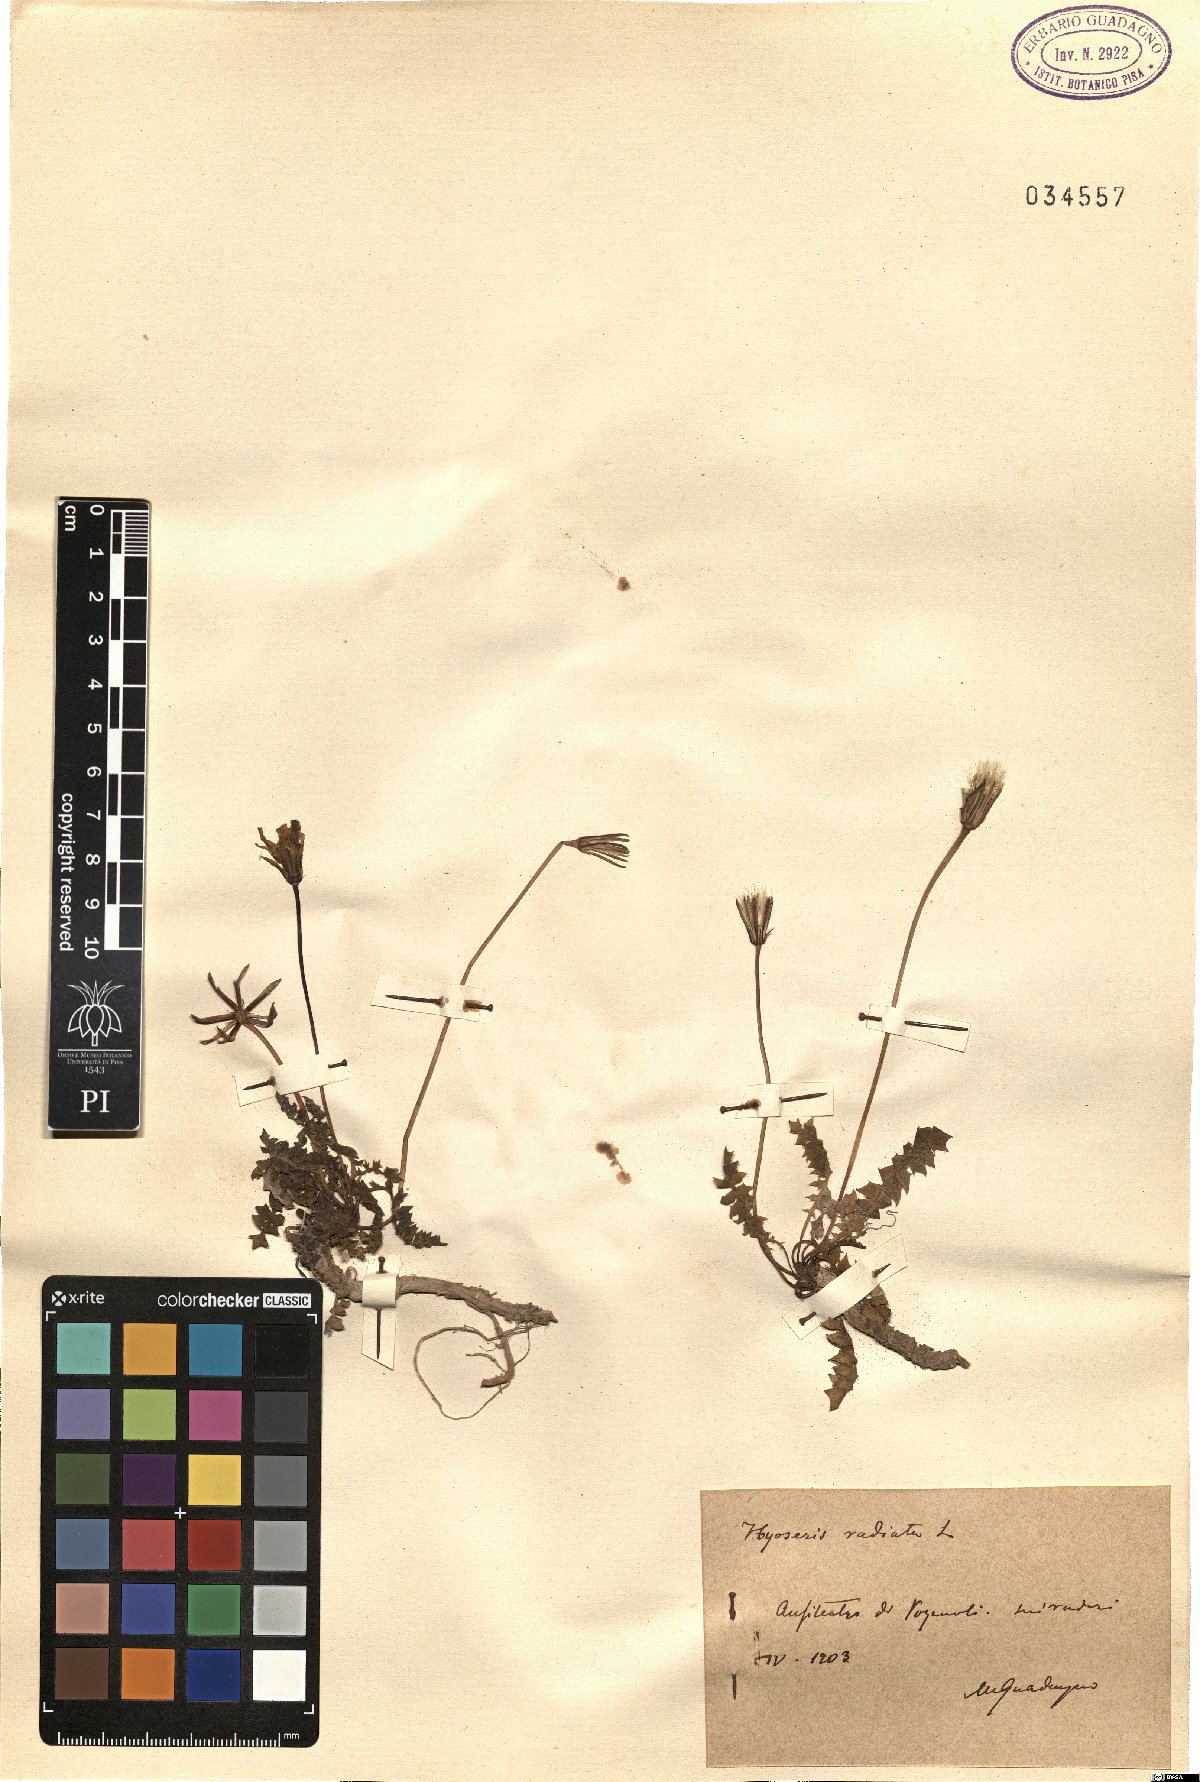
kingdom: Plantae
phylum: Tracheophyta
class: Magnoliopsida
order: Asterales
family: Asteraceae
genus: Hyoseris
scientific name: Hyoseris radiata
